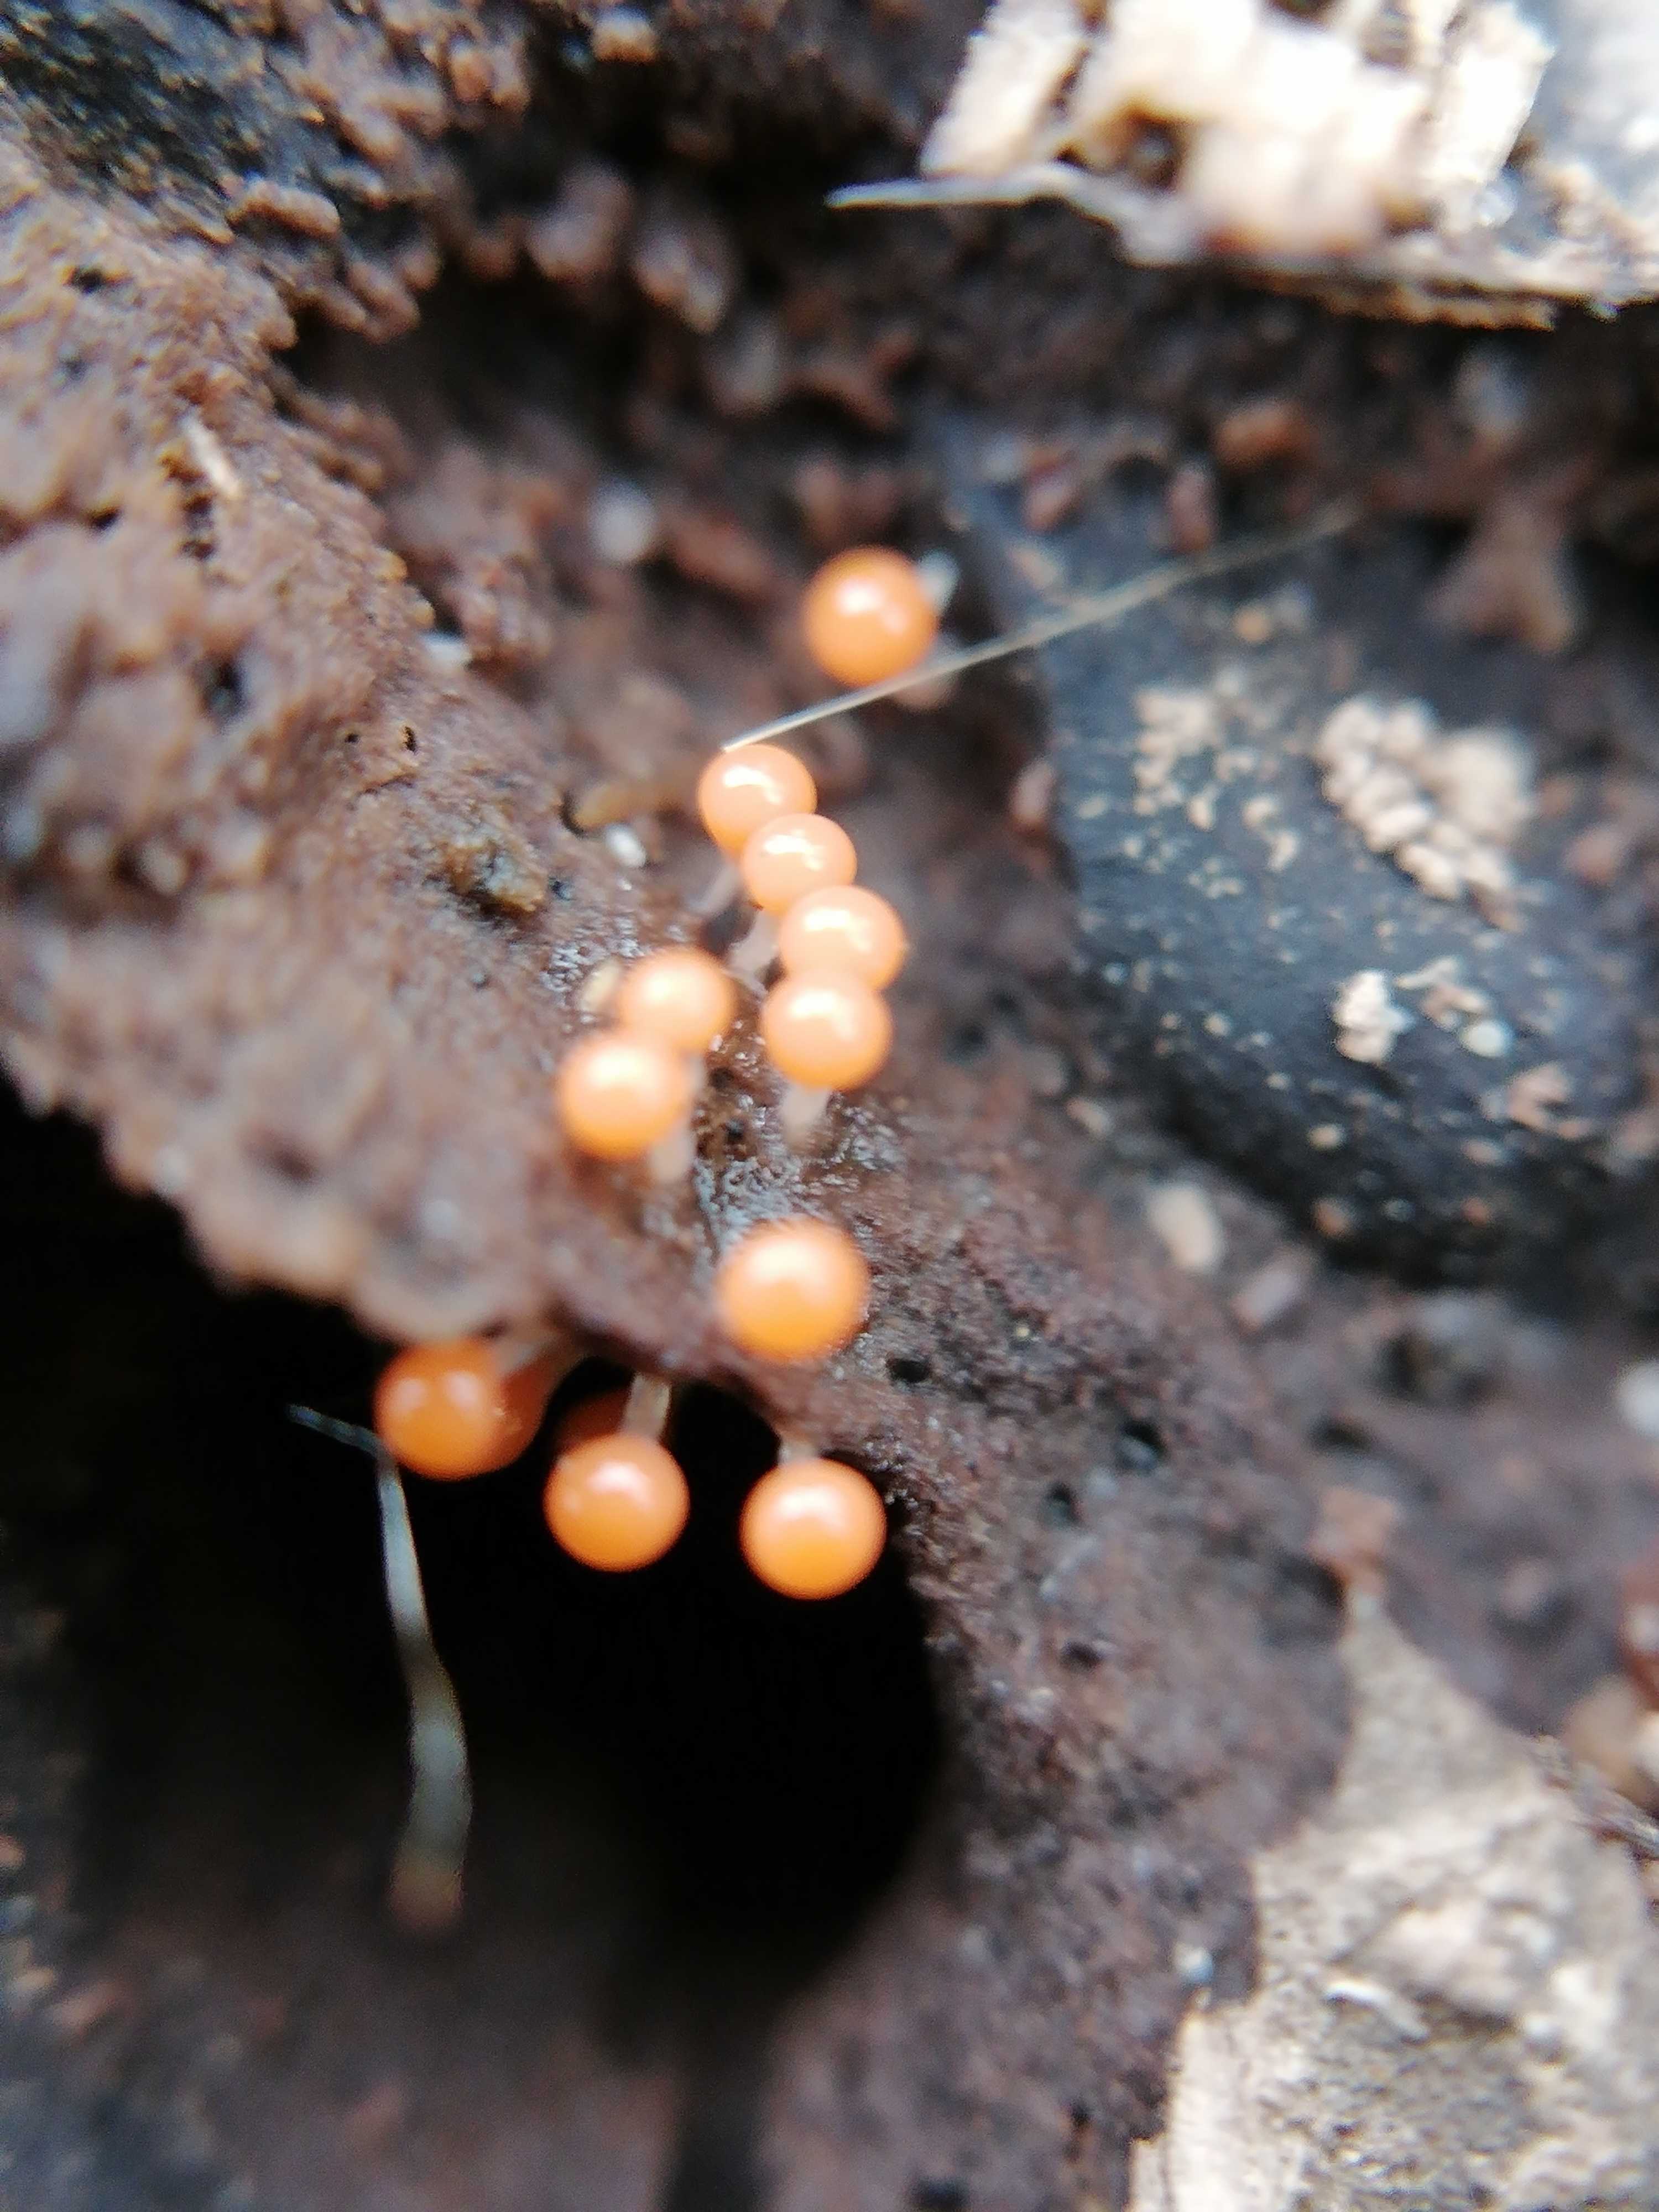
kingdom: Protozoa
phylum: Mycetozoa
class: Myxomycetes
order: Trichiales
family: Trichiaceae
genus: Trichia
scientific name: Trichia
